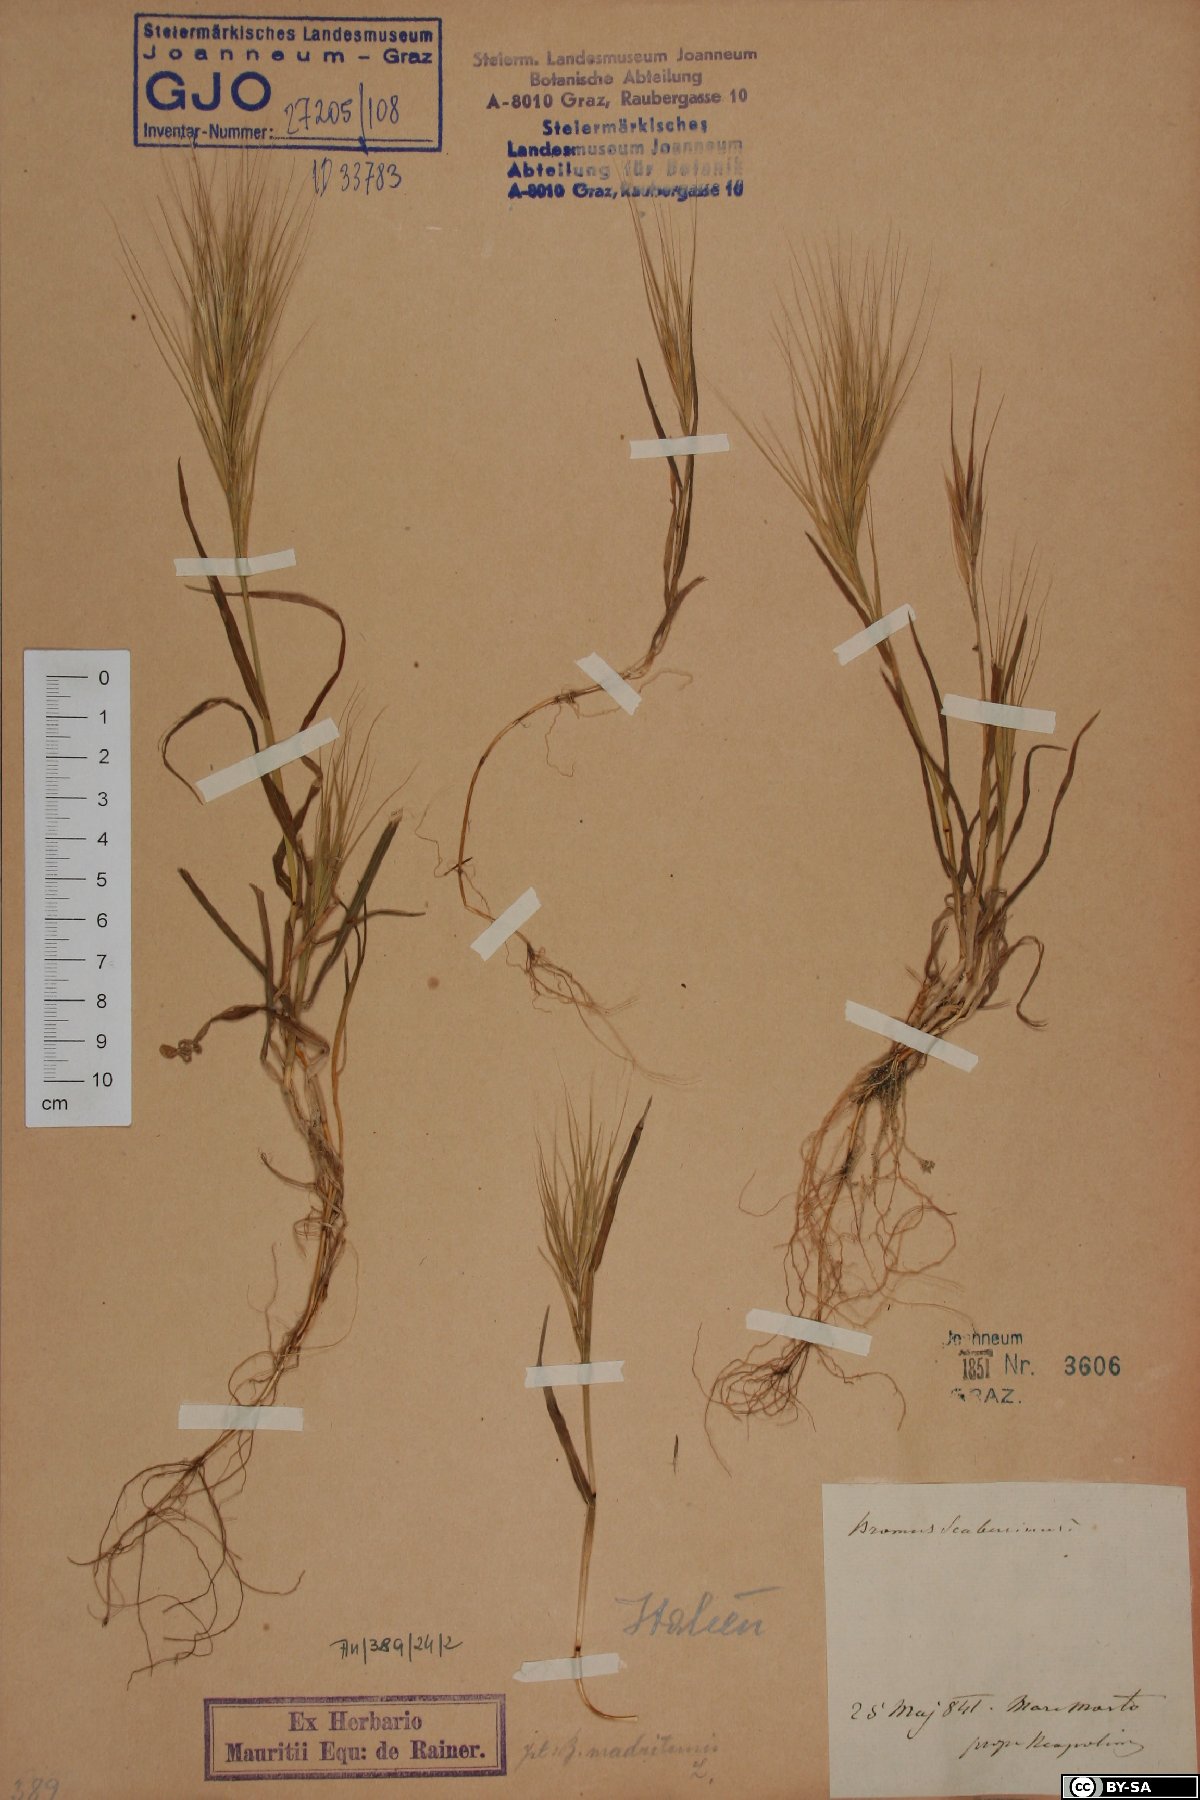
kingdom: Plantae
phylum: Tracheophyta
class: Liliopsida
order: Poales
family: Poaceae
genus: Bromus
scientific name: Bromus sterilis
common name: Poverty brome
